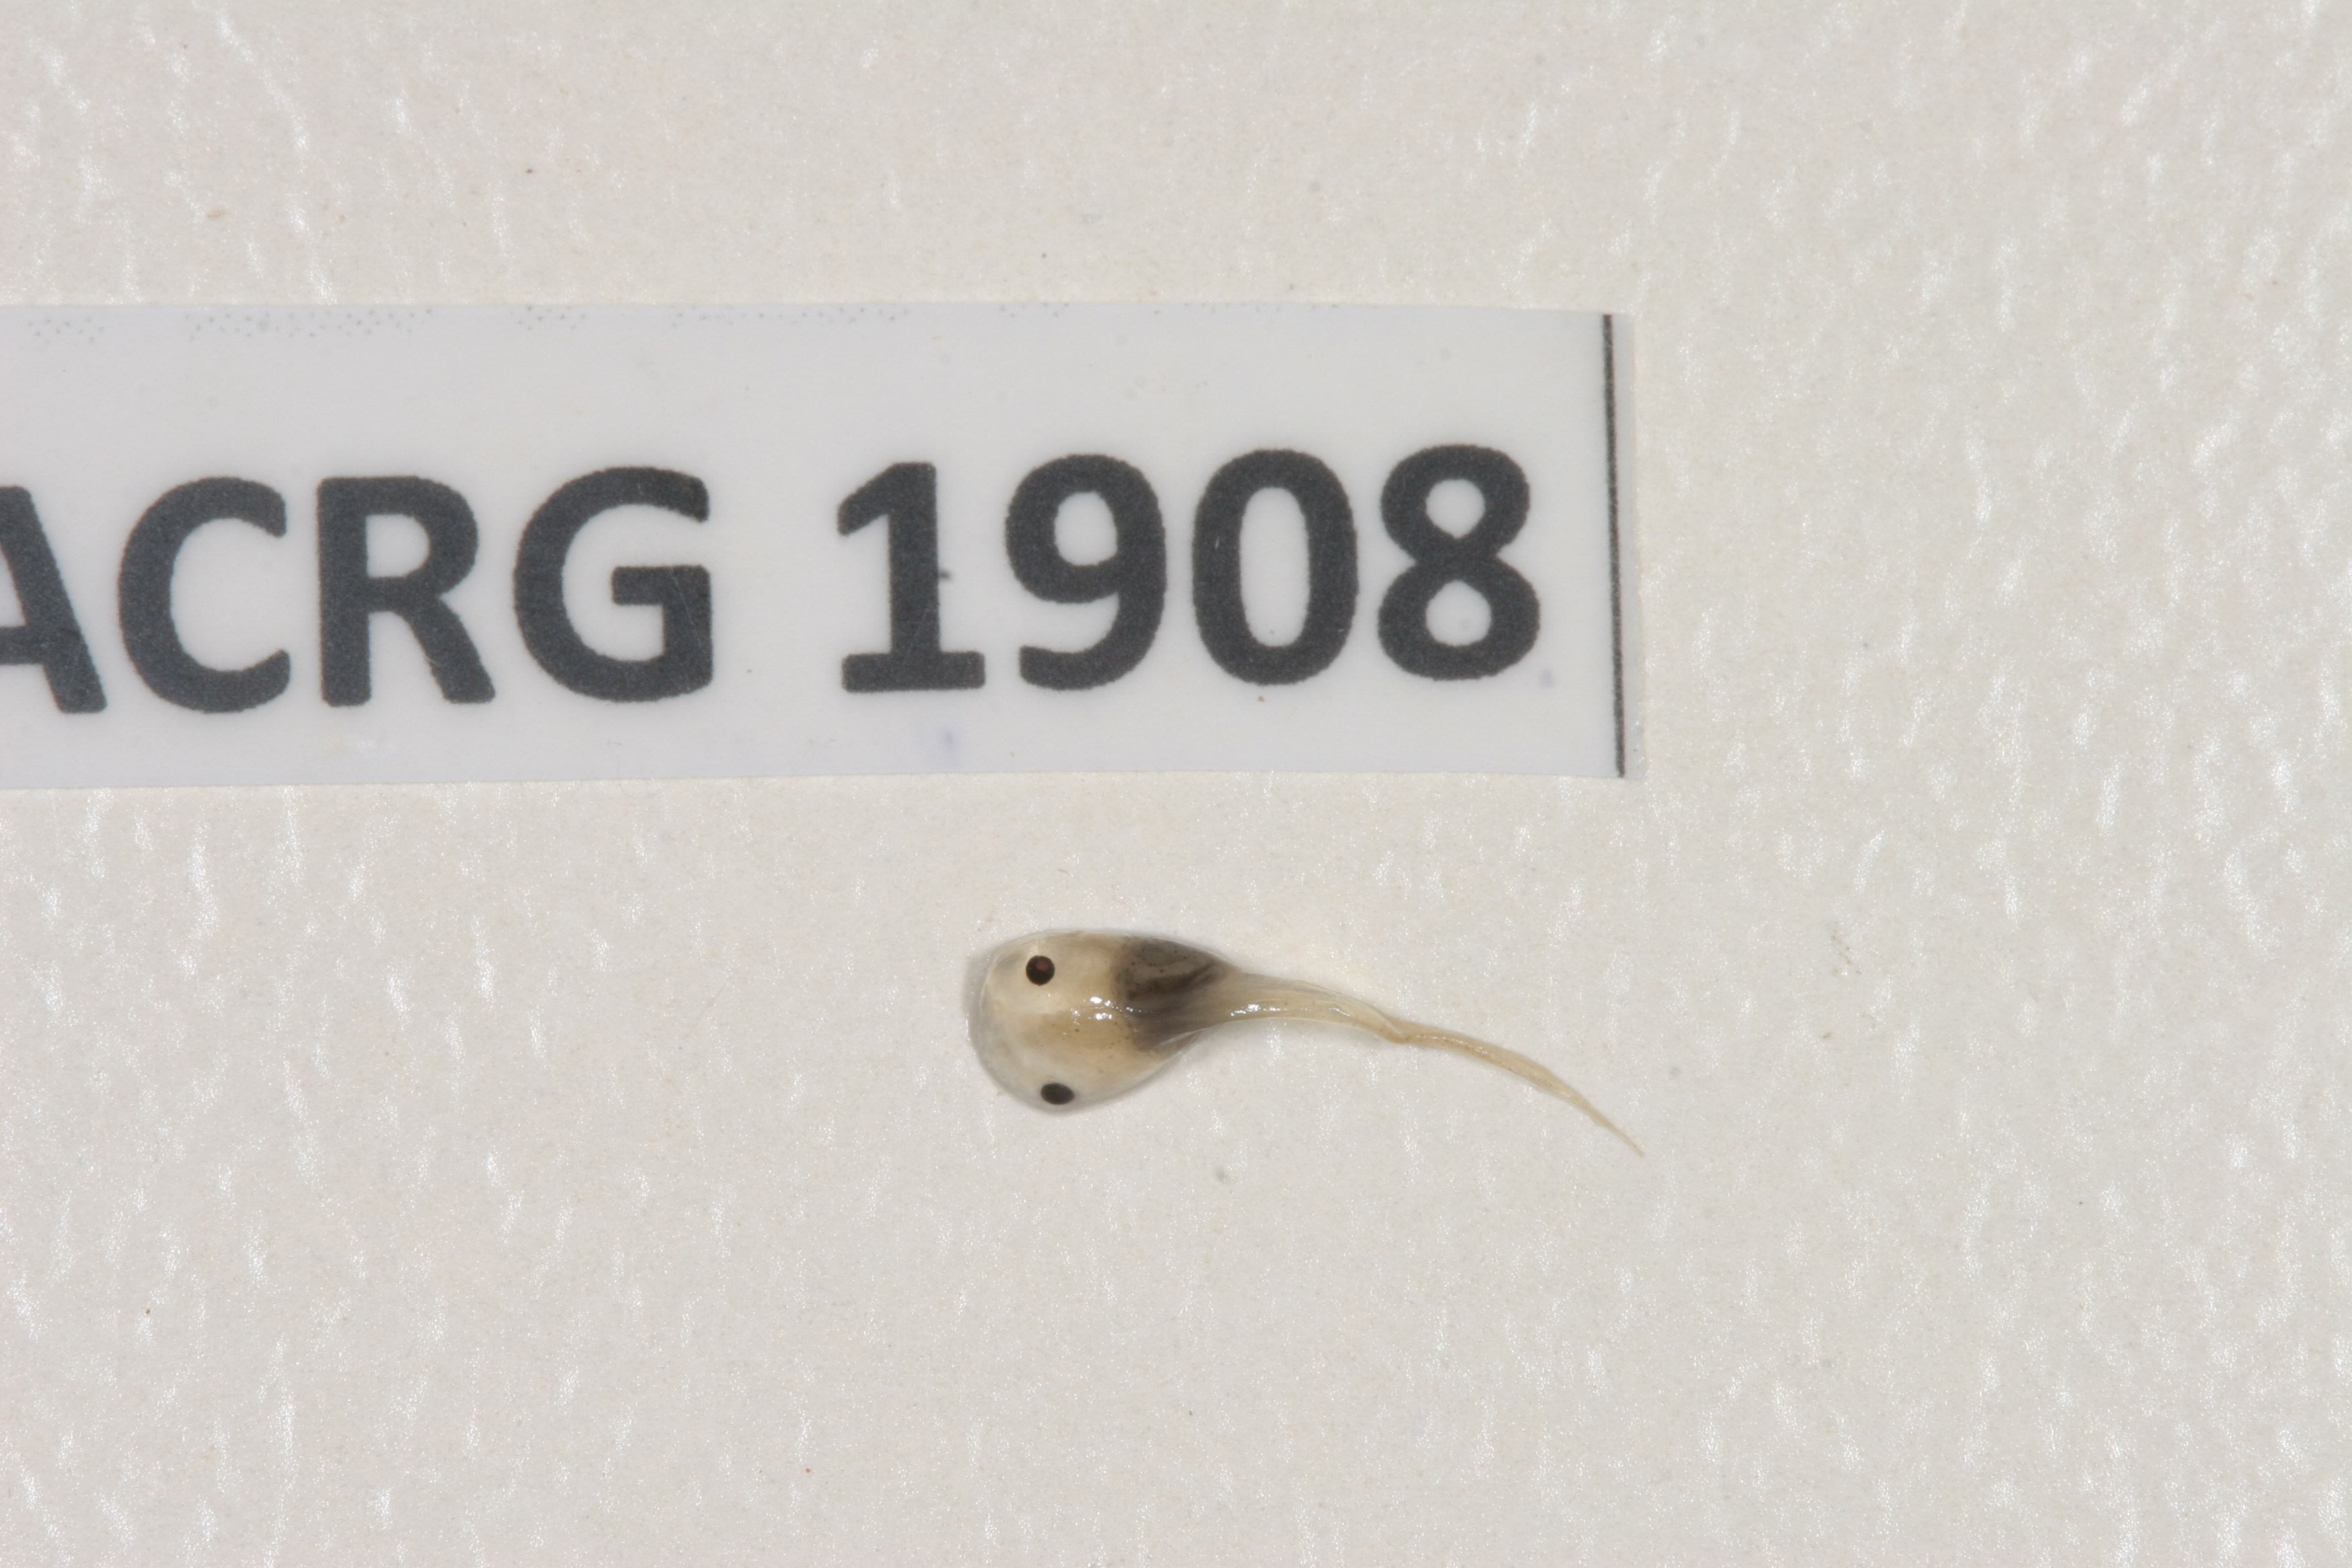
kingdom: Animalia
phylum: Chordata
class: Amphibia
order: Anura
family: Pipidae
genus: Xenopus
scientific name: Xenopus muelleri
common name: Muller's clawed frog
